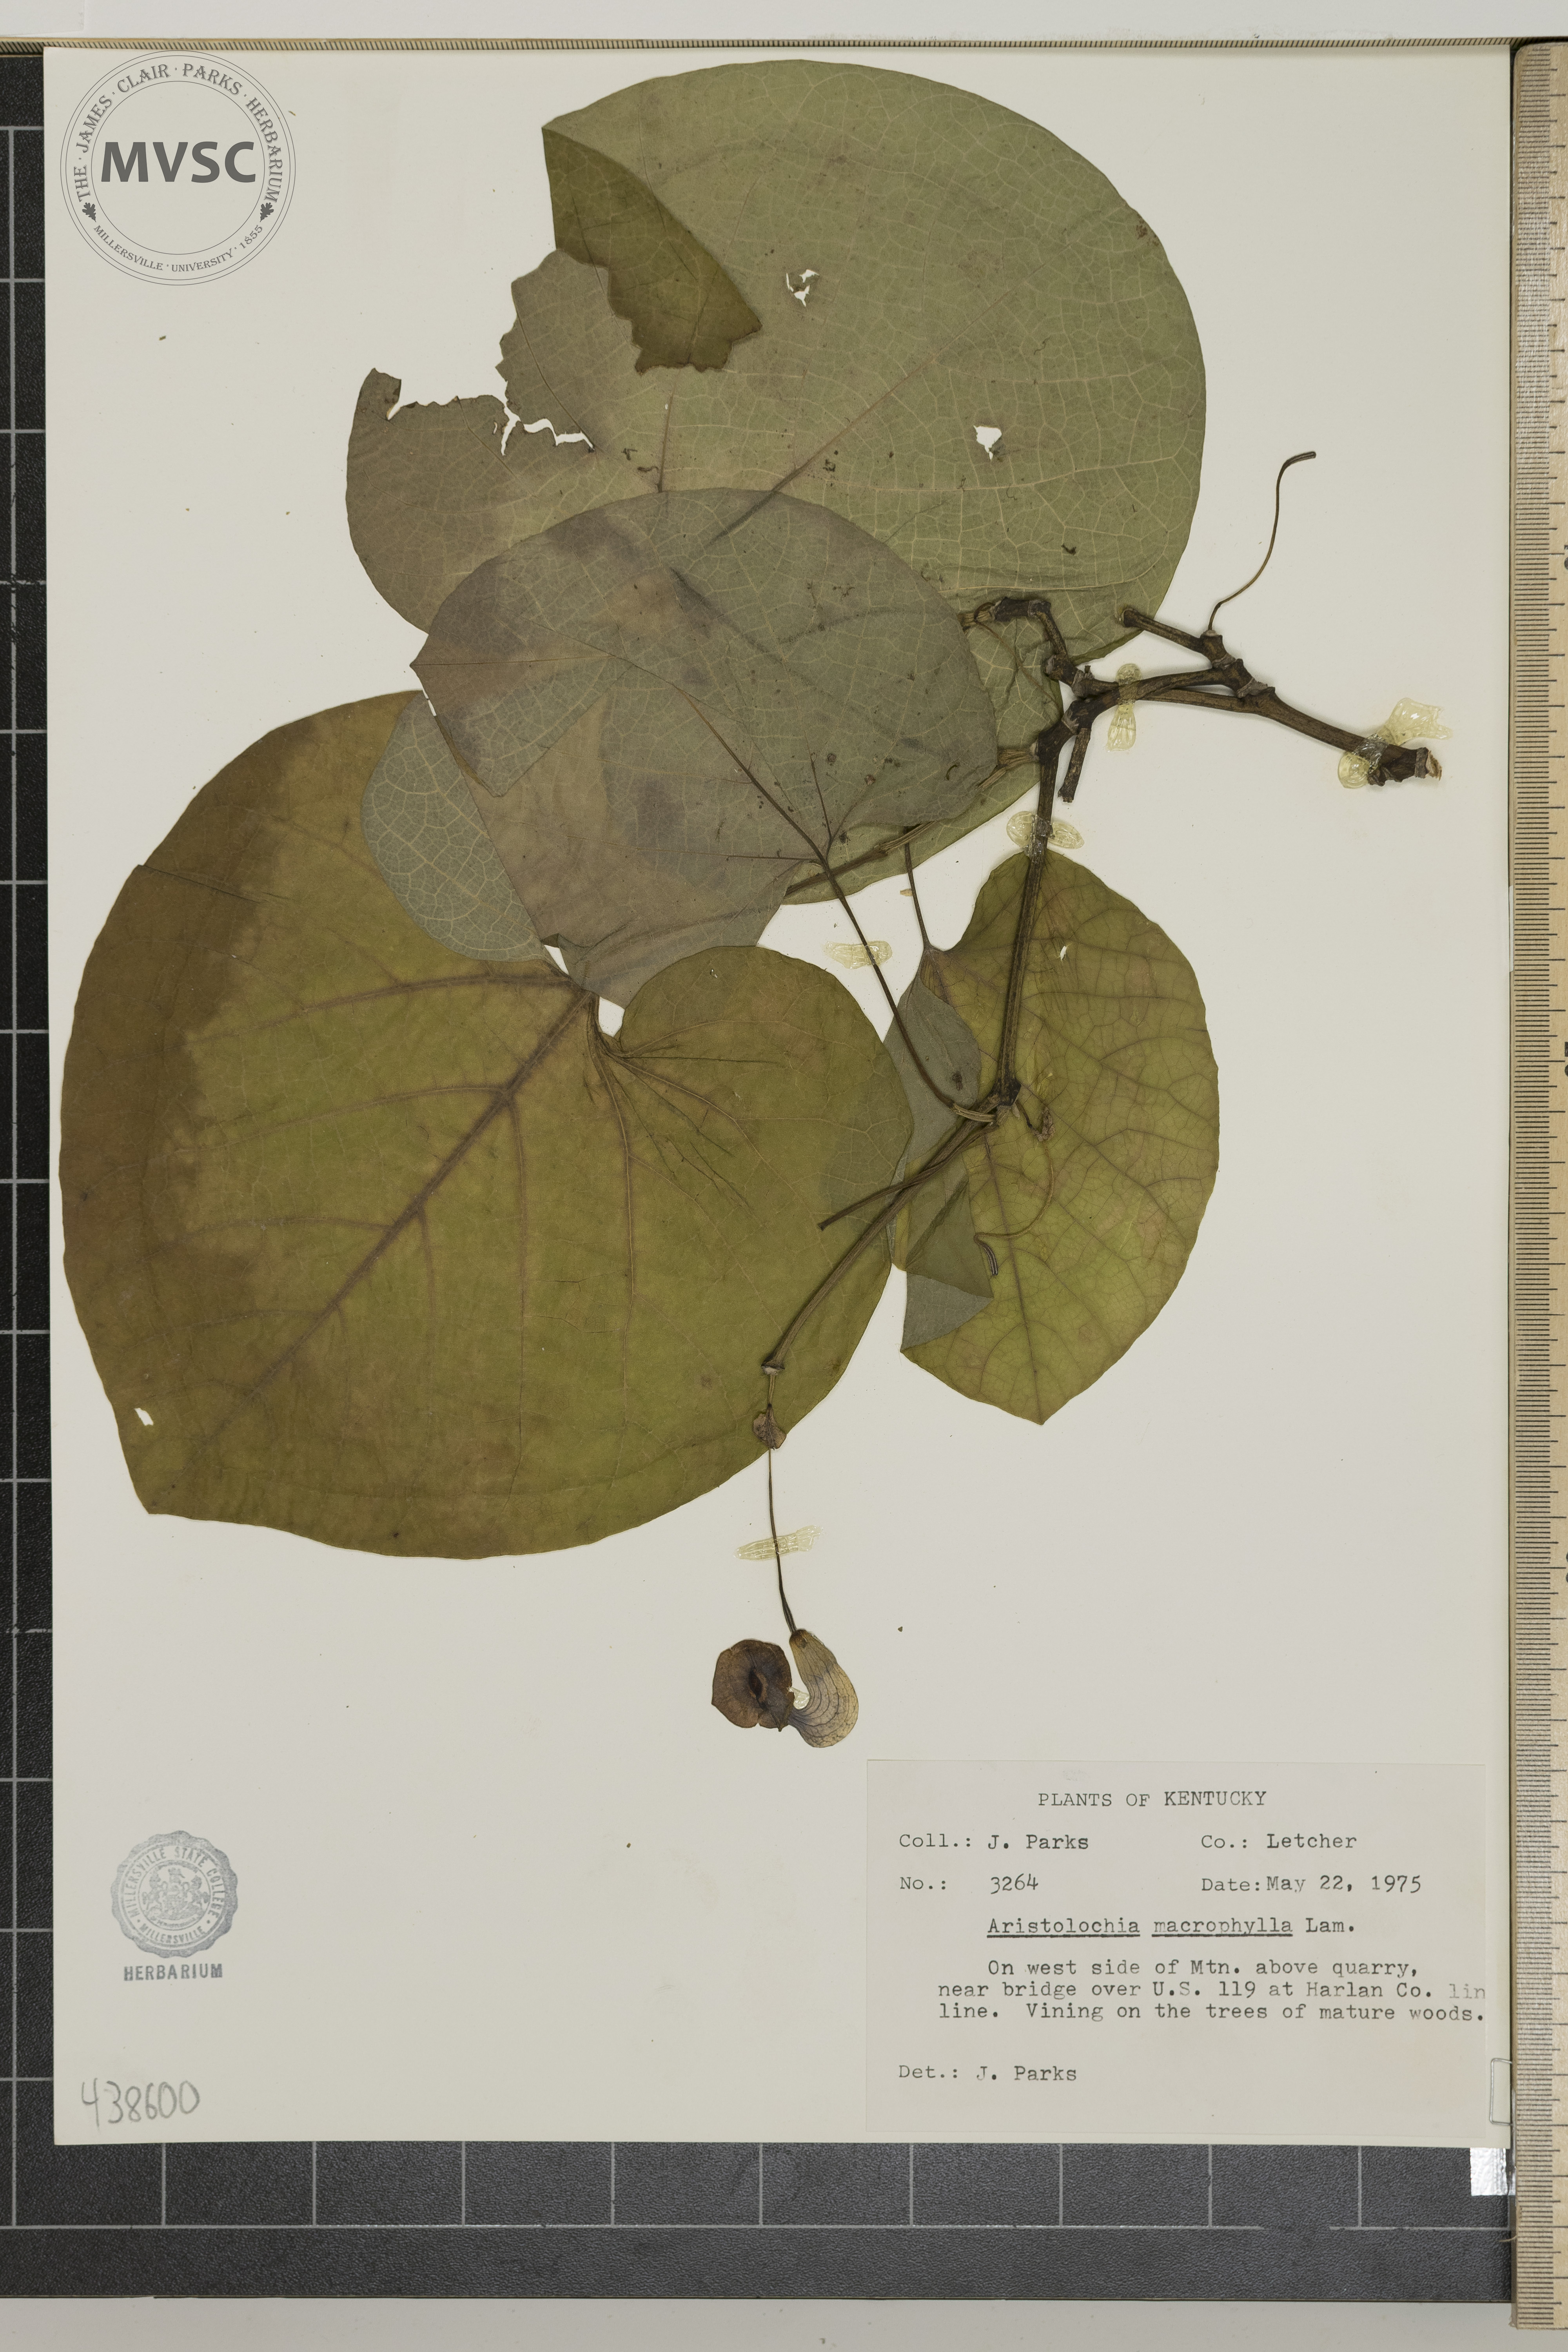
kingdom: Plantae
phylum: Tracheophyta
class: Magnoliopsida
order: Piperales
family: Aristolochiaceae
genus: Isotrema
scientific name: Isotrema macrophyllum
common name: Dutchman's-pipe
